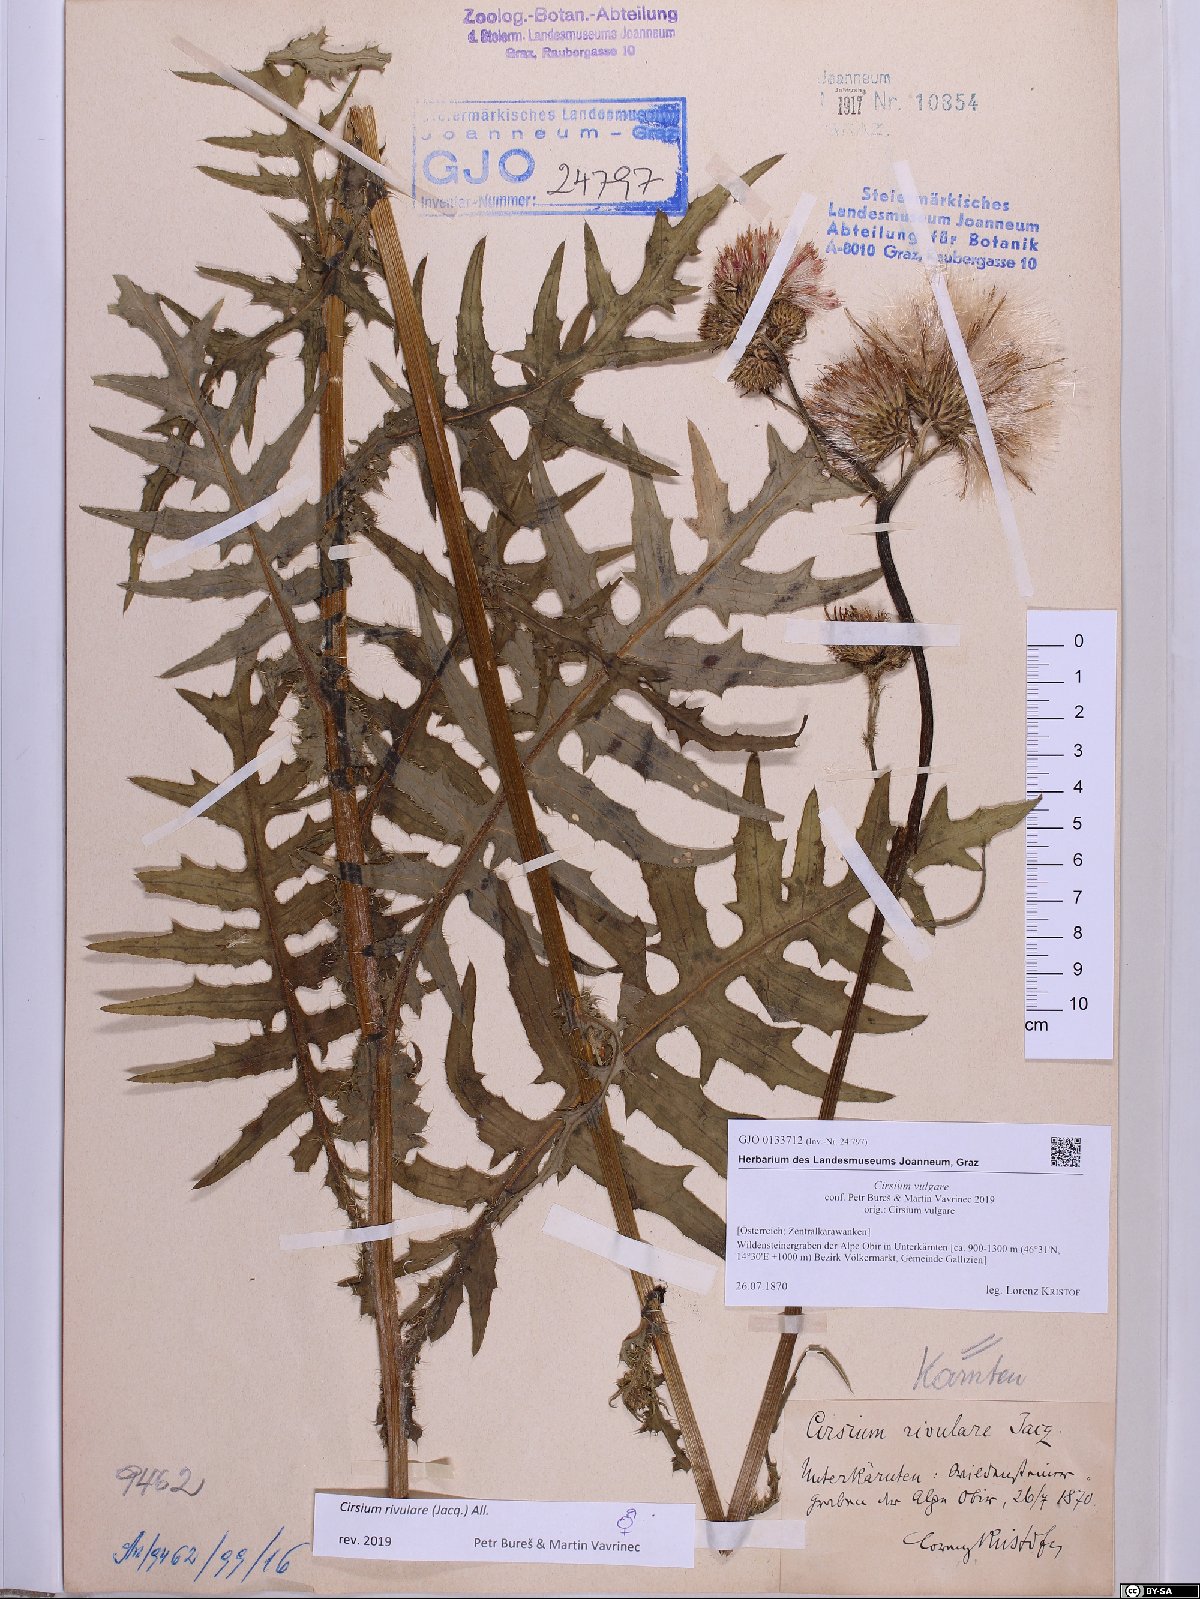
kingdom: Plantae
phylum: Tracheophyta
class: Magnoliopsida
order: Asterales
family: Asteraceae
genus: Cirsium
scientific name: Cirsium vulgare
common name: Bull thistle
